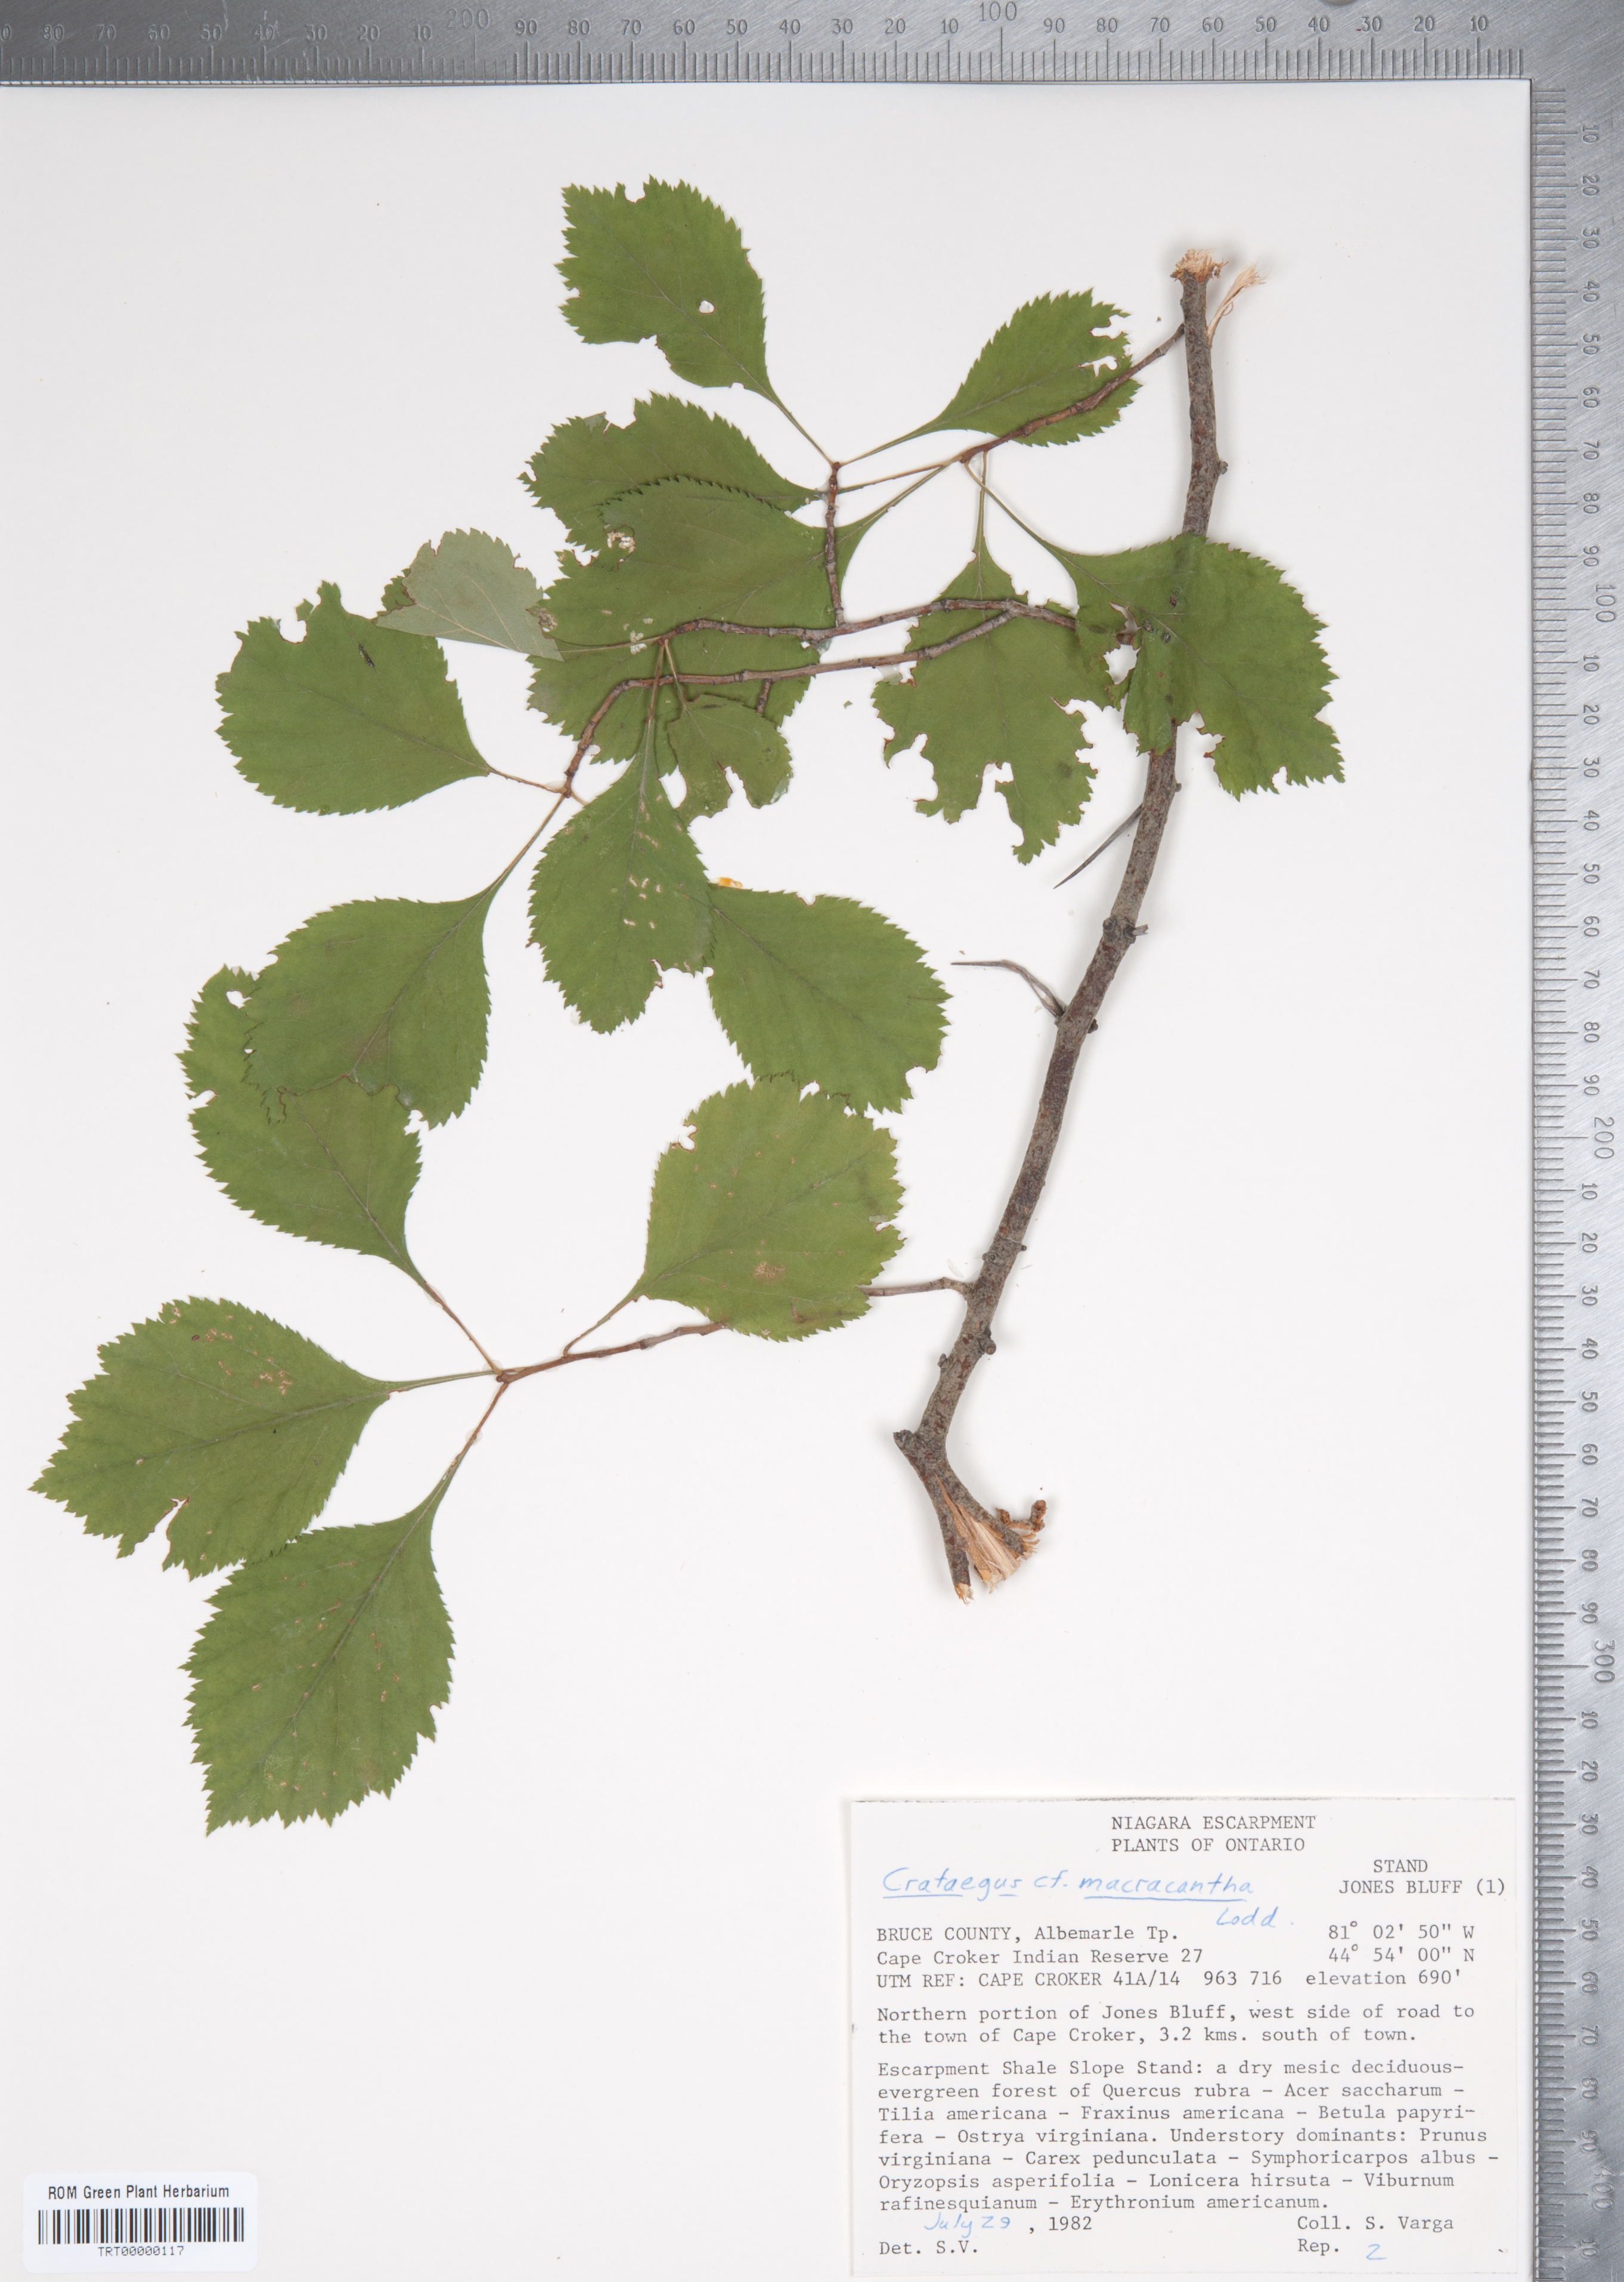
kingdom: Plantae
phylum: Tracheophyta
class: Magnoliopsida
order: Rosales
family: Rosaceae
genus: Crataegus
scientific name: Crataegus macracantha
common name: Large-thorn hawthorn
